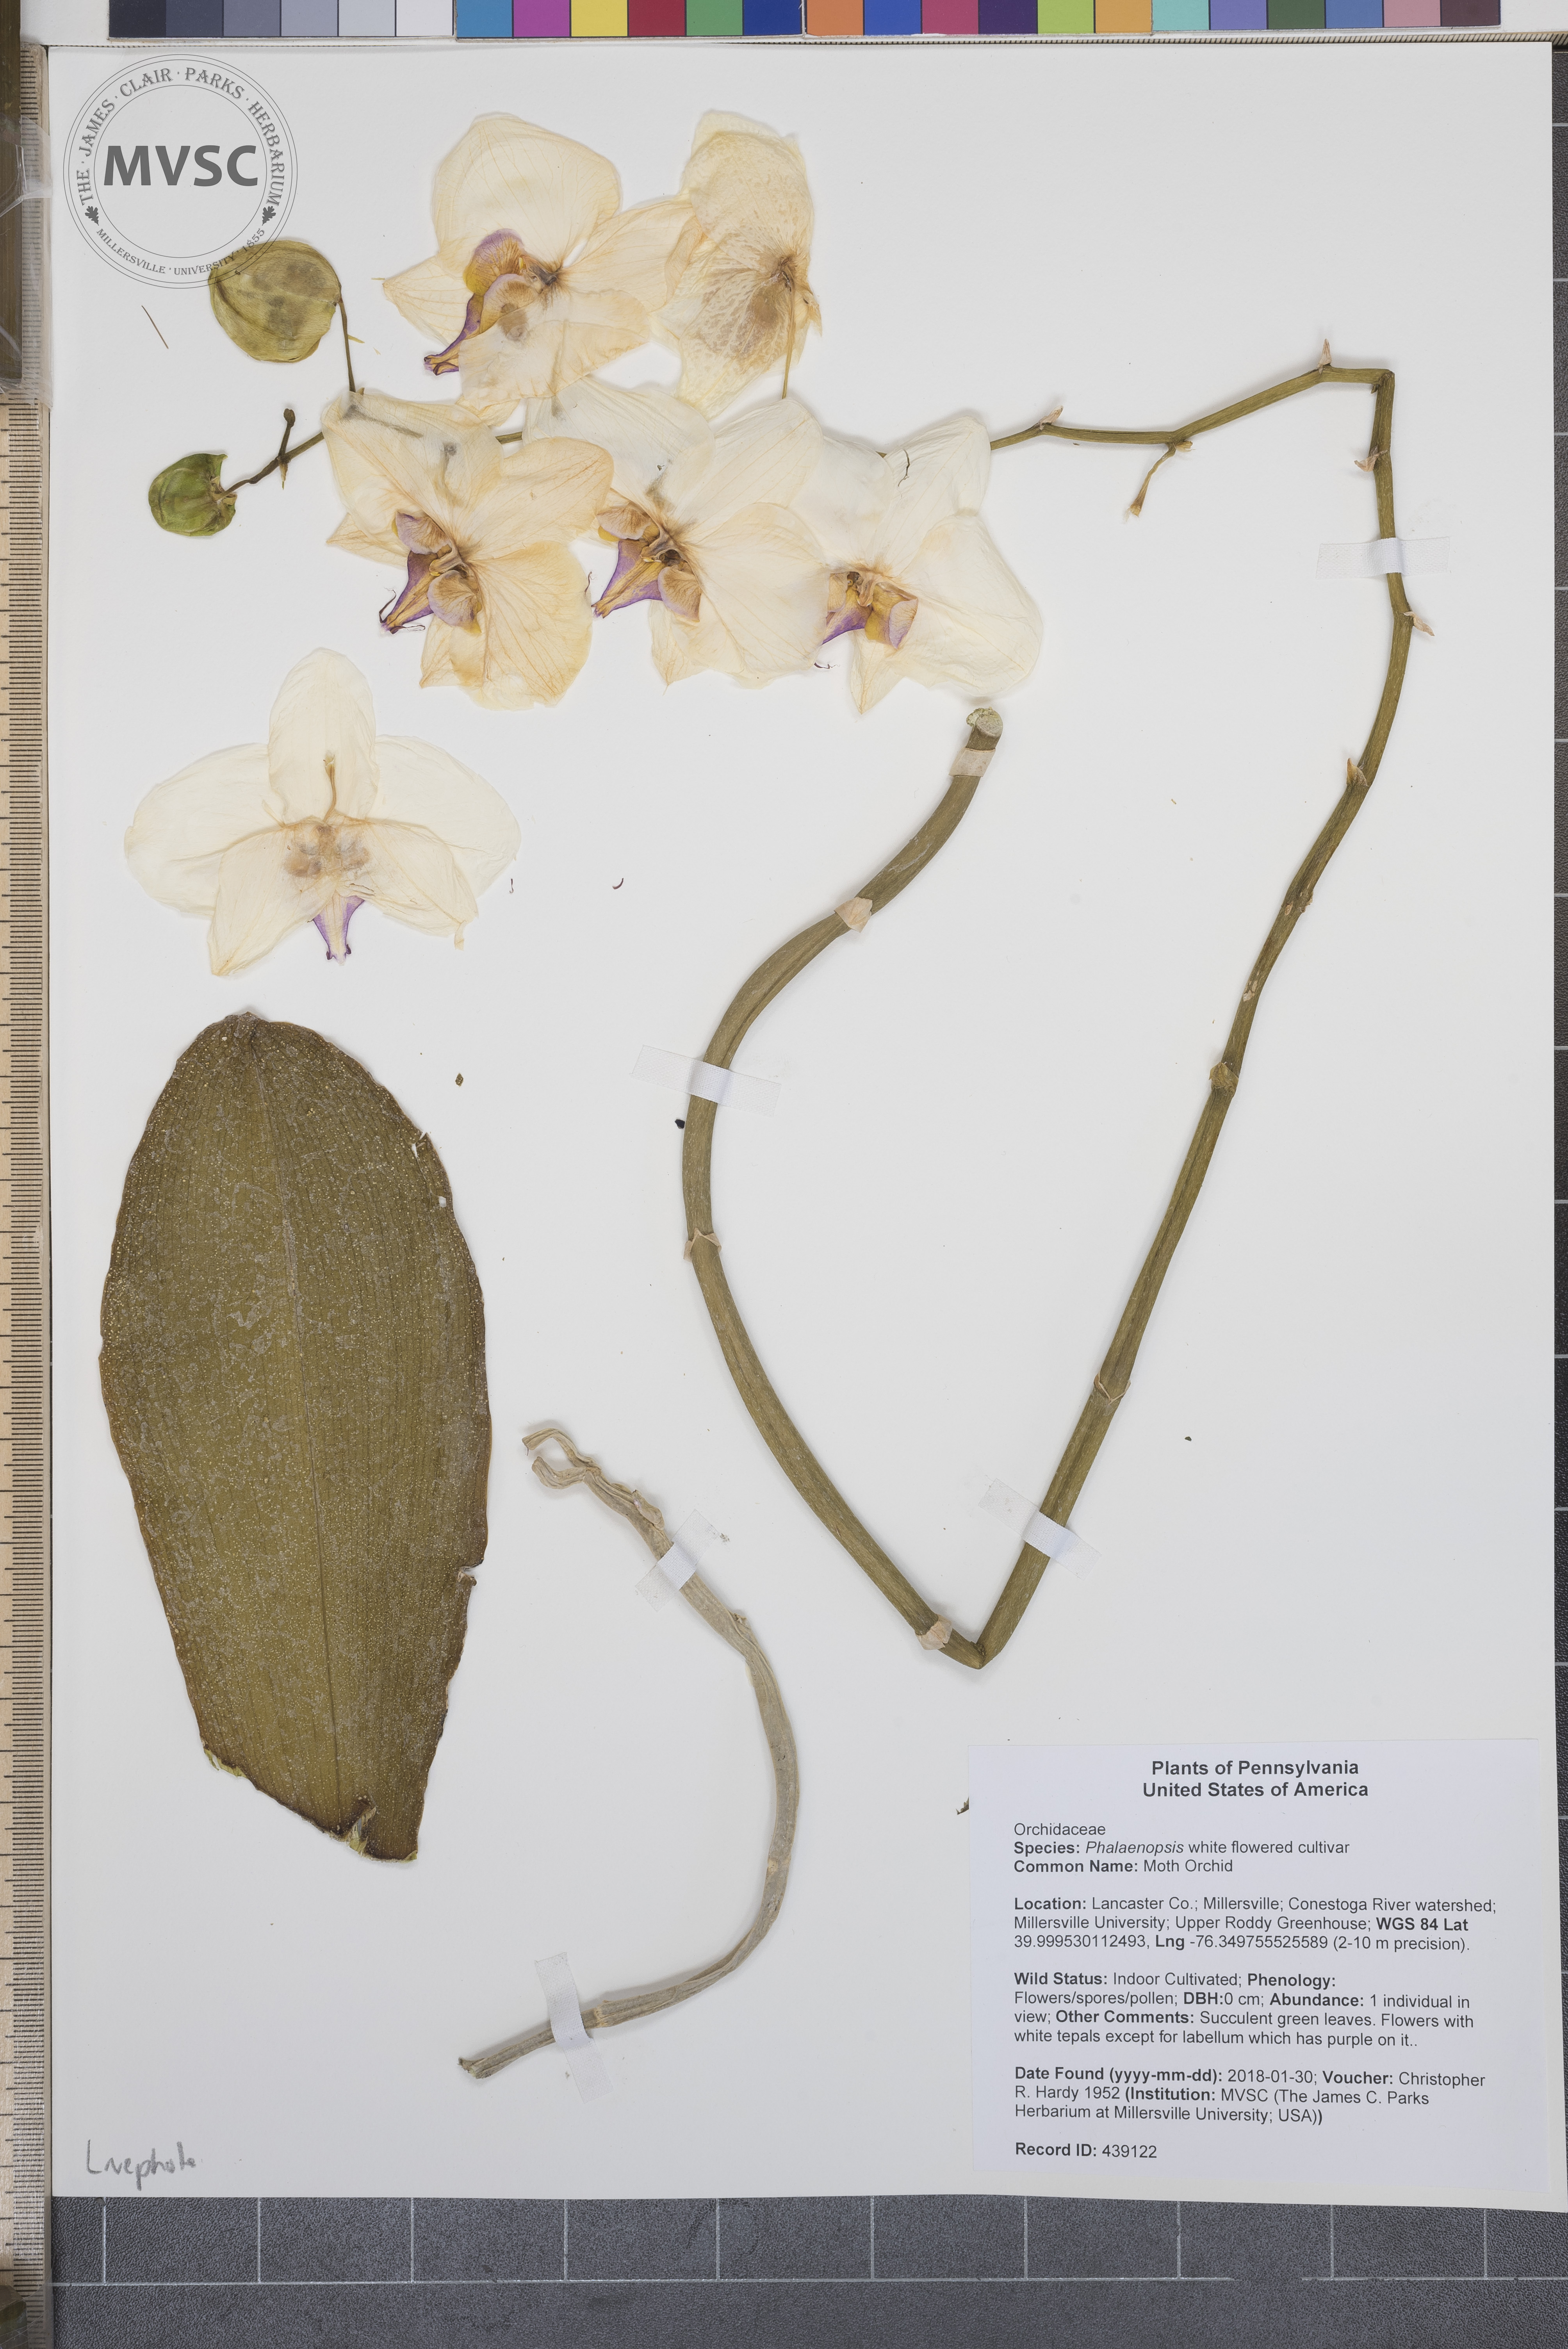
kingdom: Plantae
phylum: Tracheophyta
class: Liliopsida
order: Asparagales
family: Orchidaceae
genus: Phalaenopsis
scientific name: Phalaenopsis
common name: Moth Orchid
